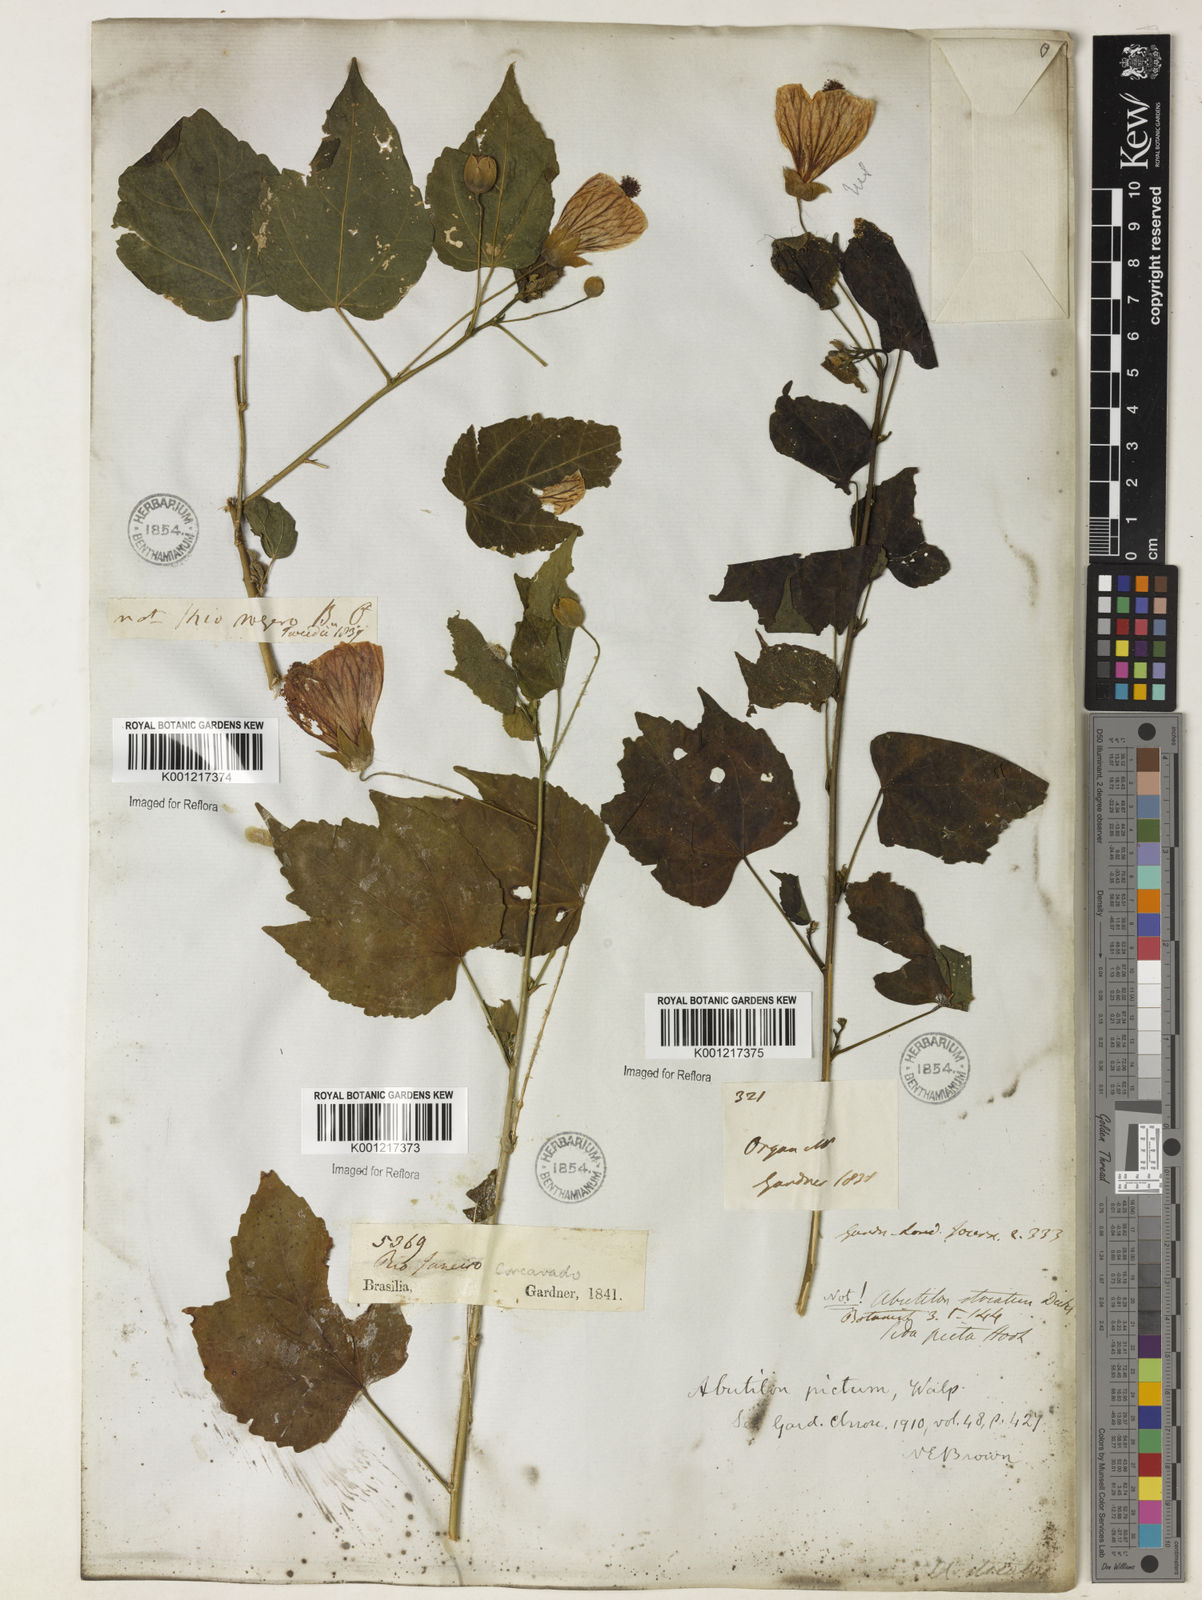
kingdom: Plantae
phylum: Tracheophyta
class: Magnoliopsida
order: Malvales
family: Malvaceae
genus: Callianthe
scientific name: Callianthe picta
